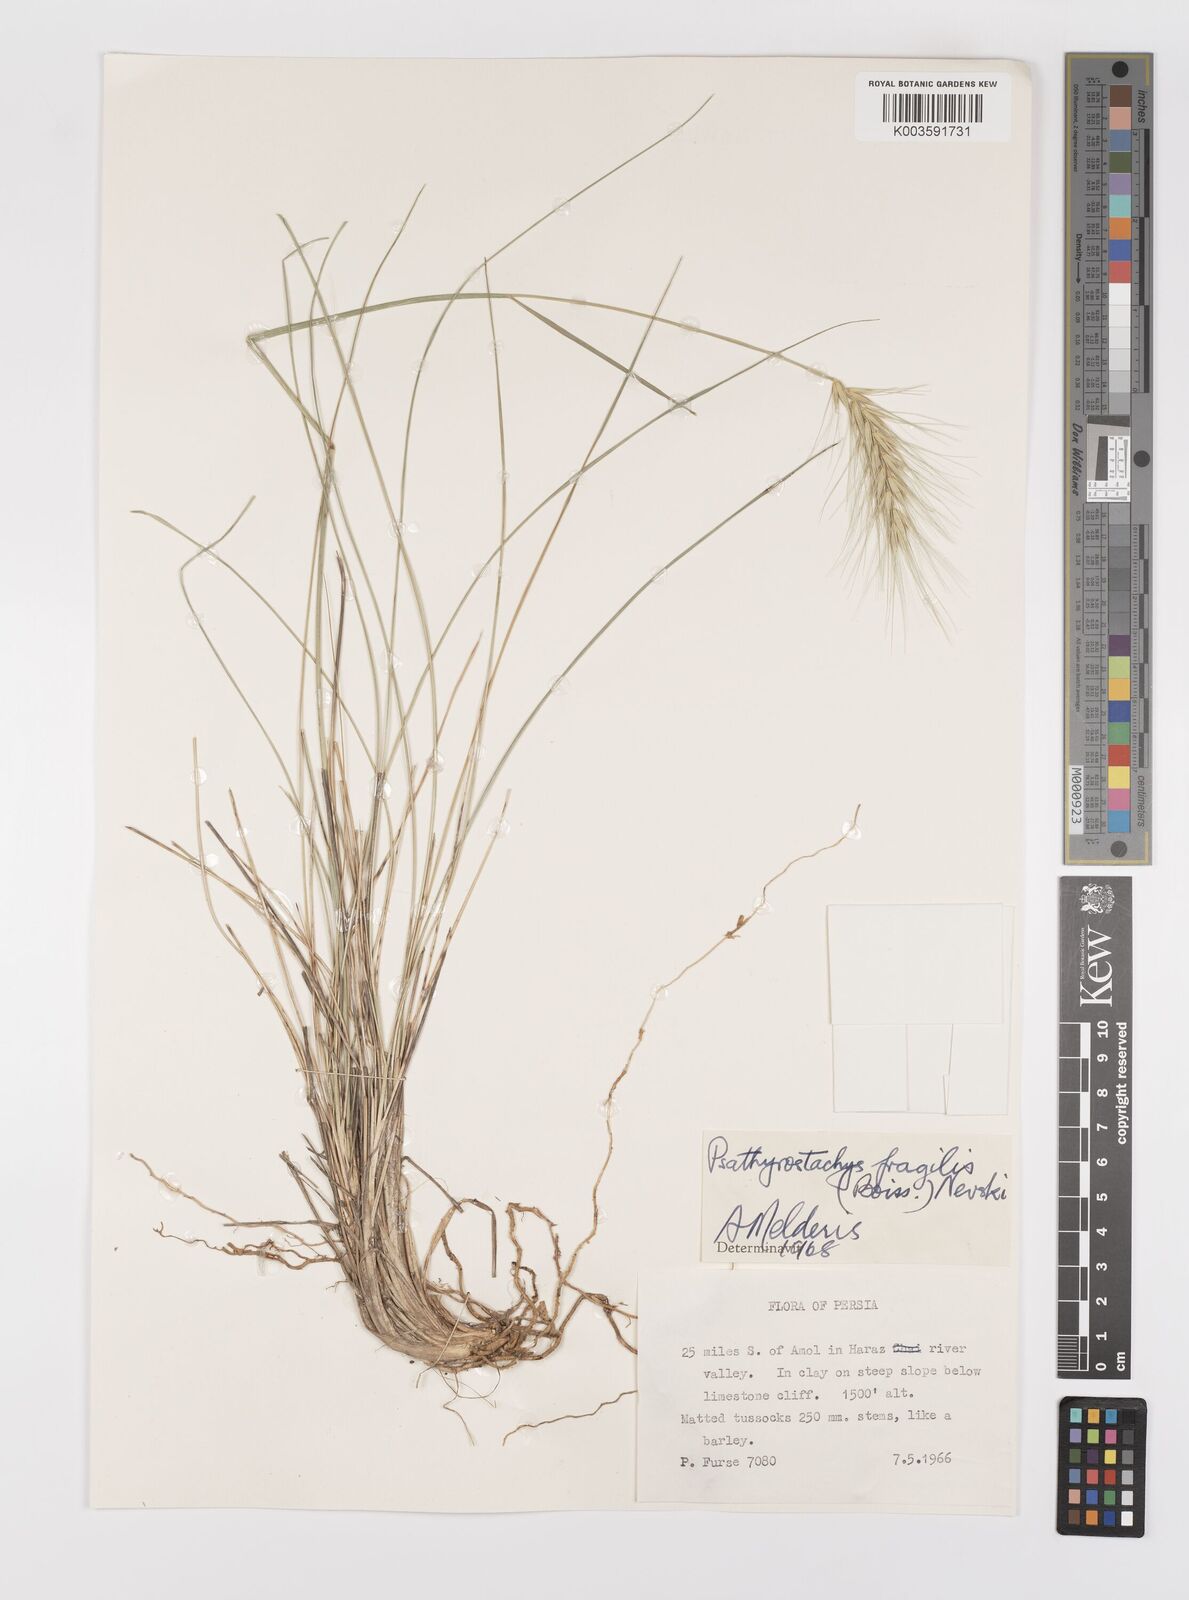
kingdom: Plantae
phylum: Tracheophyta
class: Liliopsida
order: Poales
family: Poaceae
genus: Psathyrostachys
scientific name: Psathyrostachys fragilis
